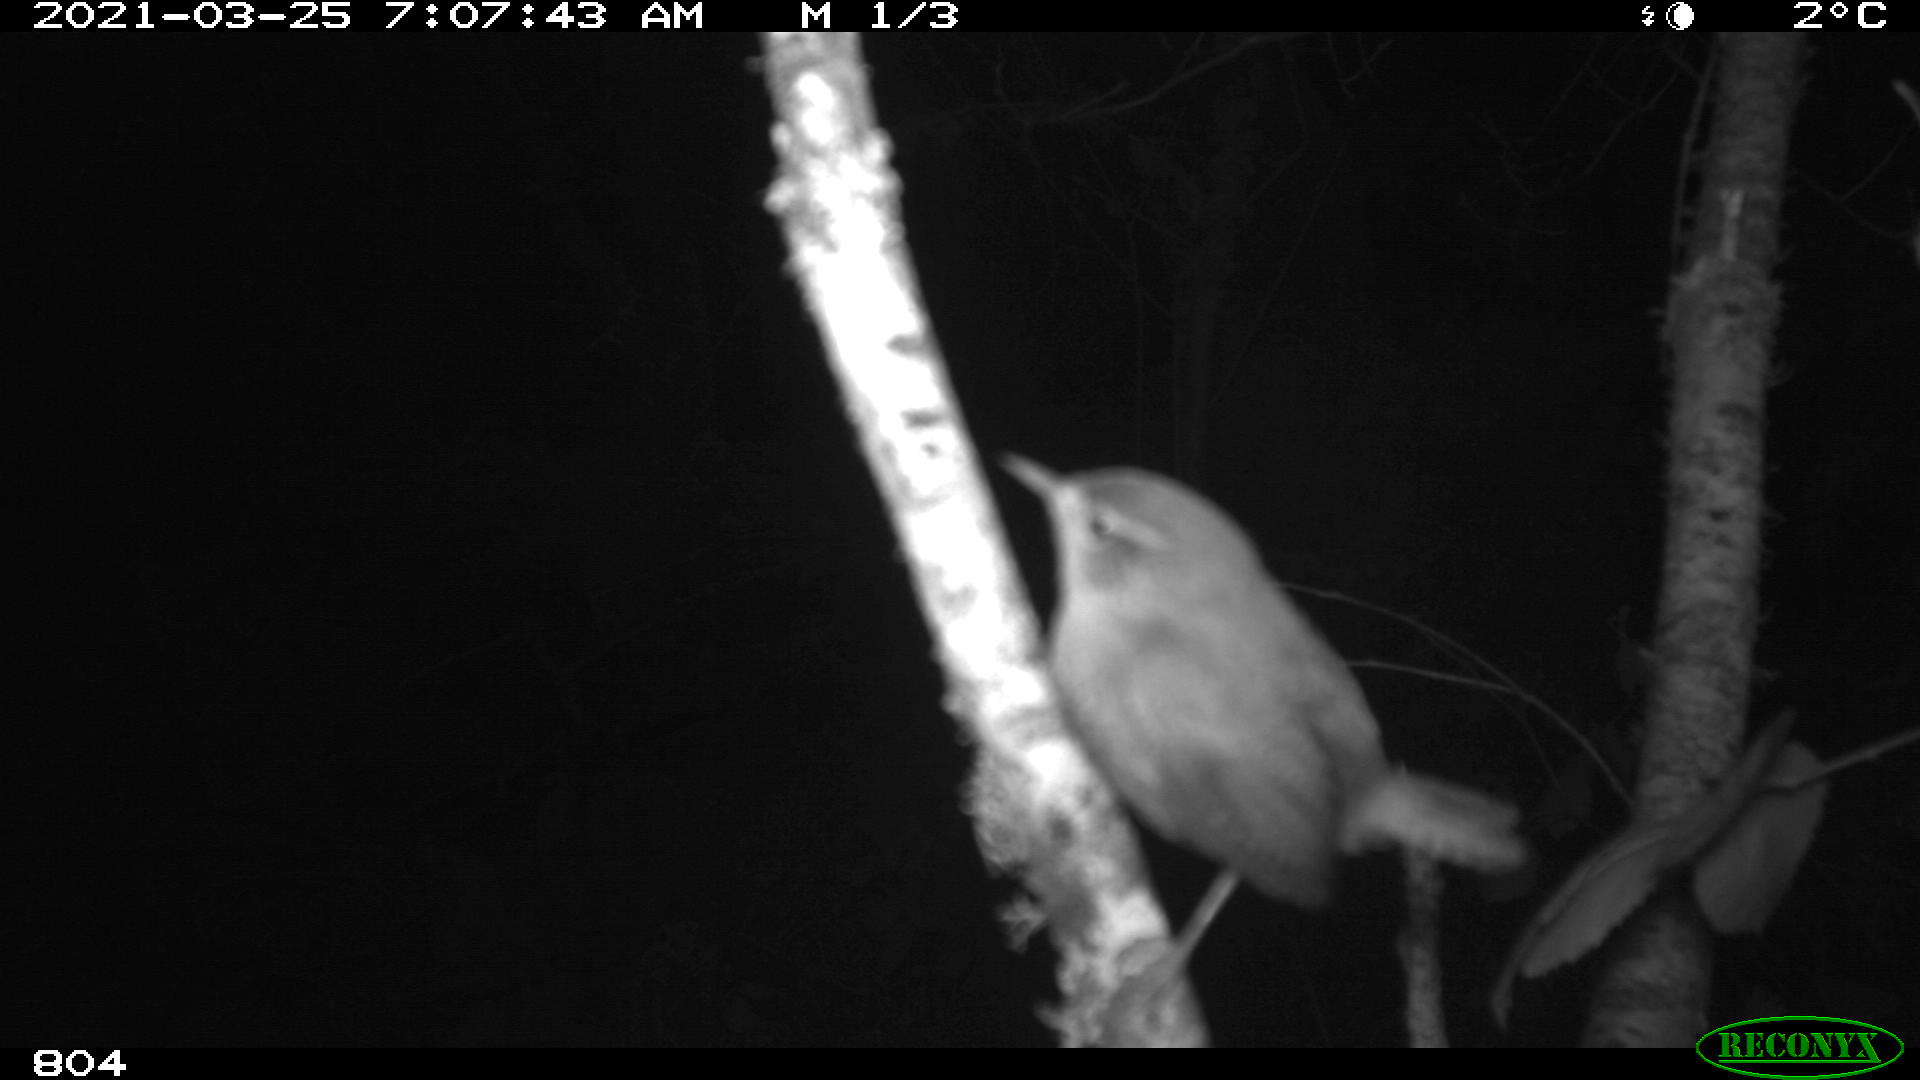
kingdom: Animalia
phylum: Chordata
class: Aves
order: Passeriformes
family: Troglodytidae
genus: Troglodytes
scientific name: Troglodytes troglodytes
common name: Eurasian wren
